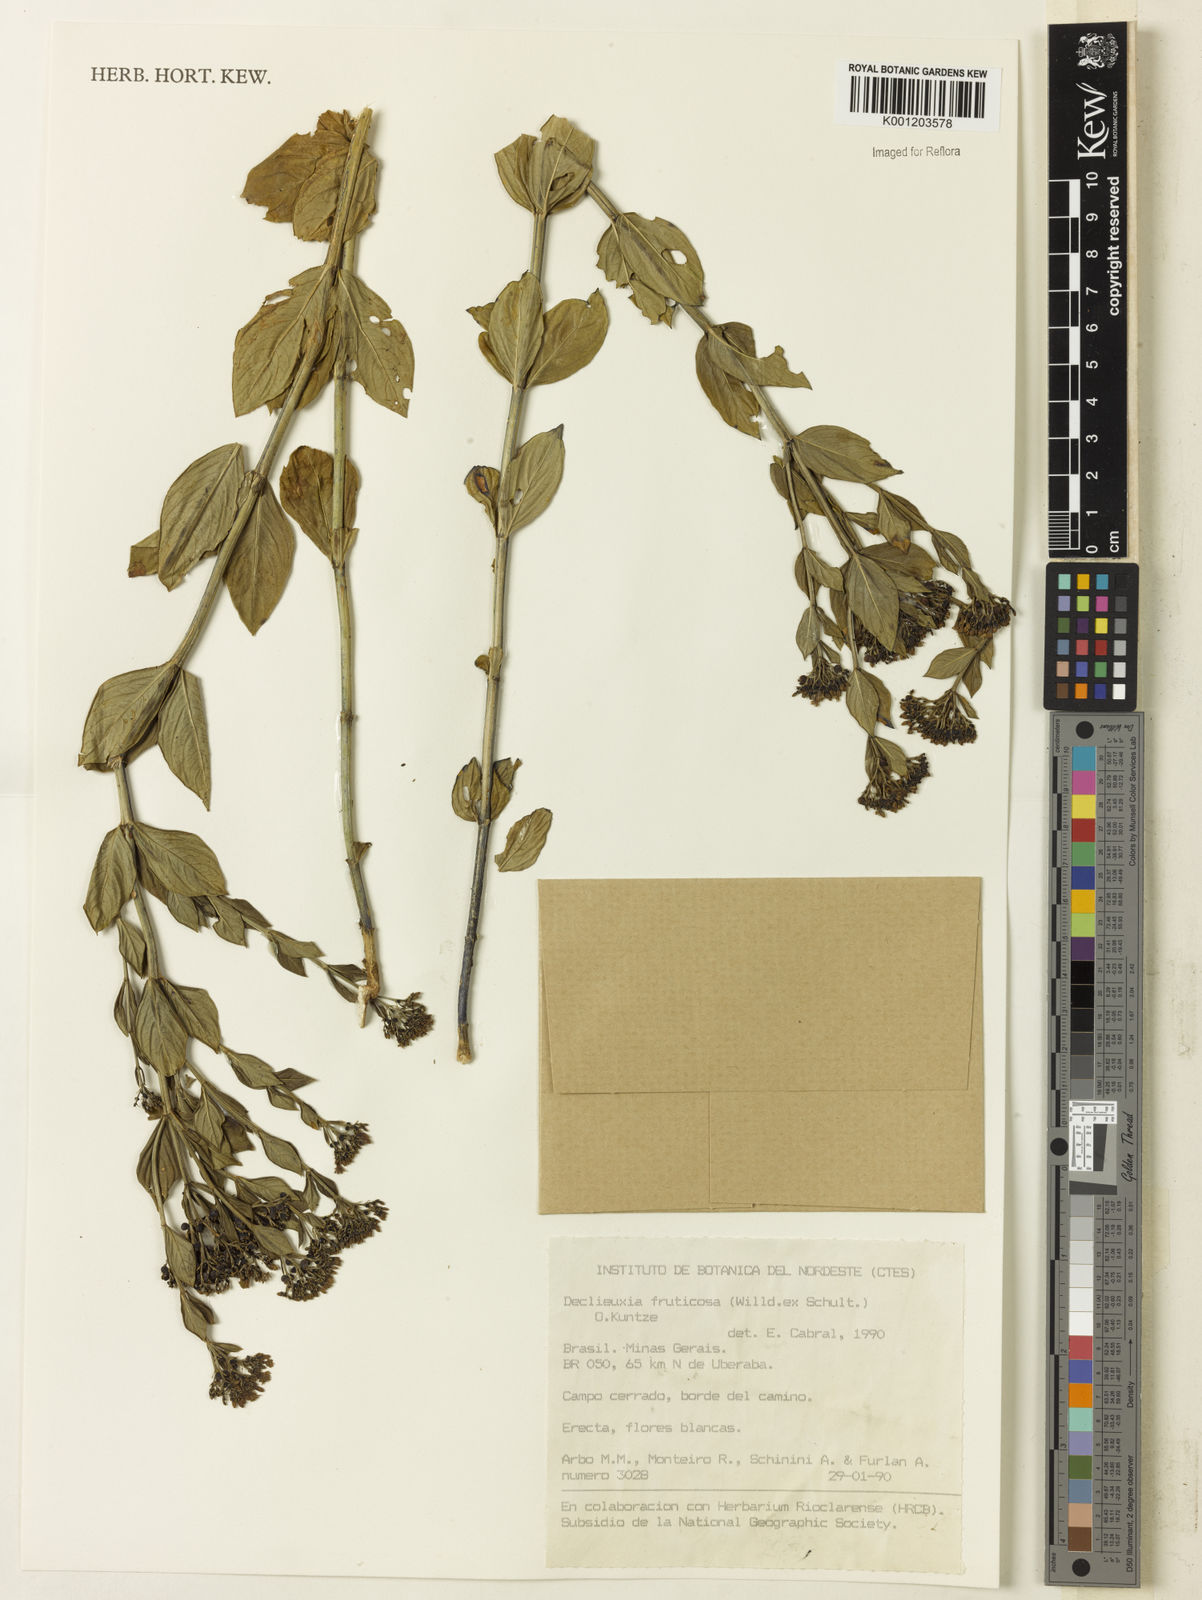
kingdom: Plantae
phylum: Tracheophyta
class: Magnoliopsida
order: Gentianales
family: Rubiaceae
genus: Declieuxia
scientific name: Declieuxia fruticosa
